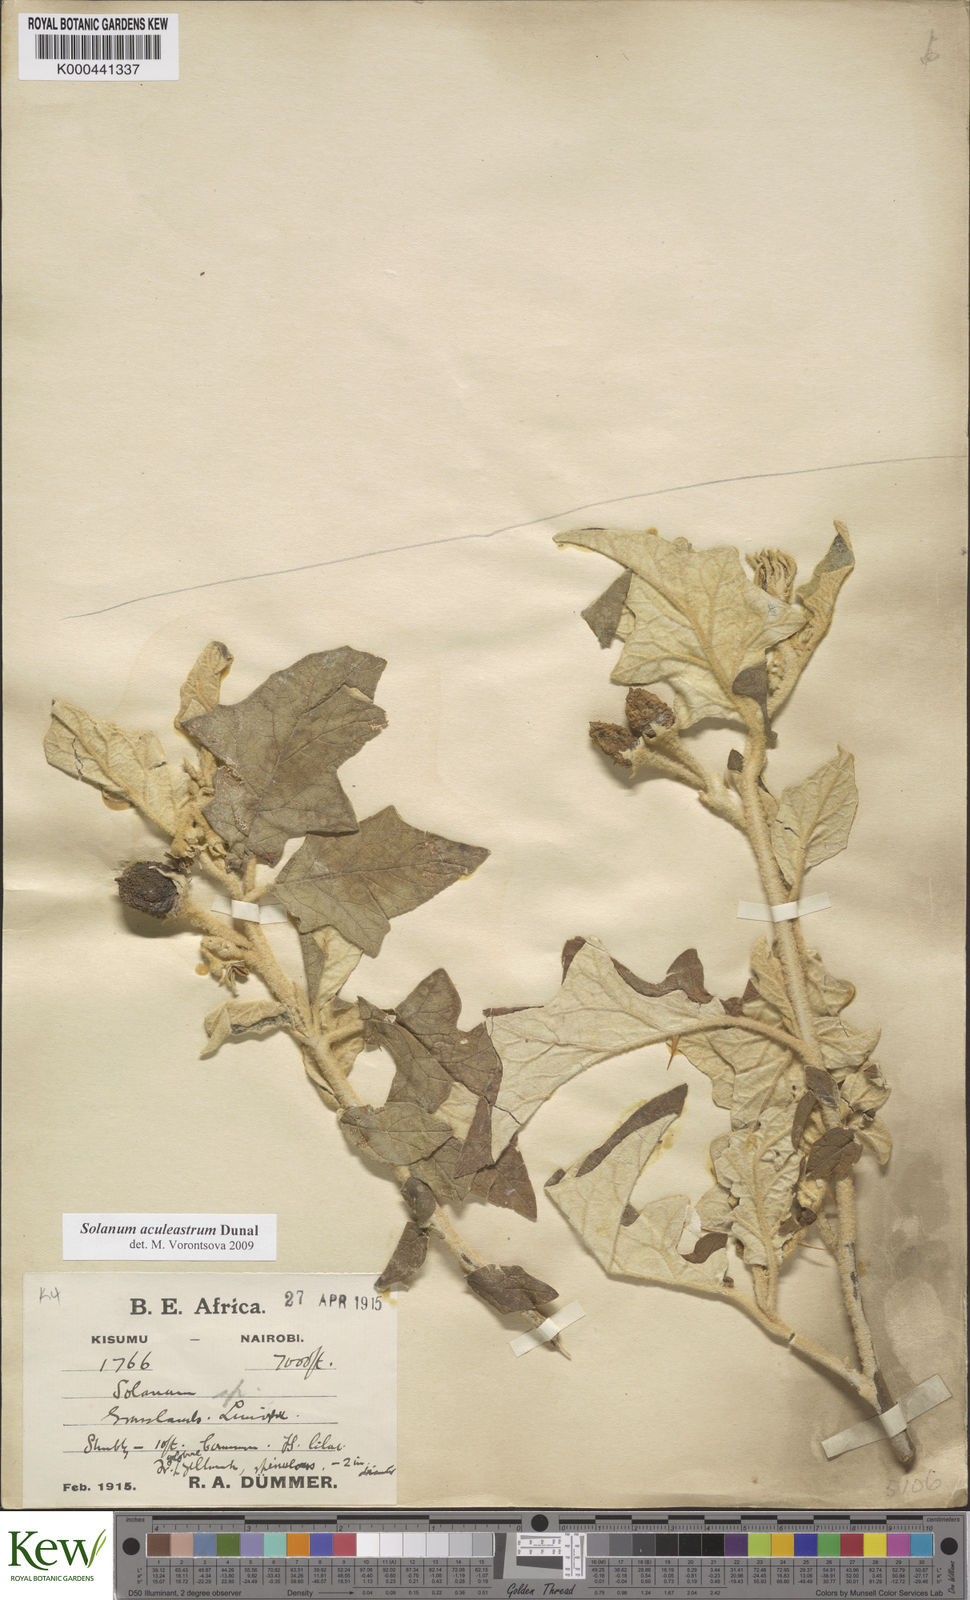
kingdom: Plantae
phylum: Tracheophyta
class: Magnoliopsida
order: Solanales
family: Solanaceae
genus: Solanum
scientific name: Solanum aculeastrum
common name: Goat bitter-apple
